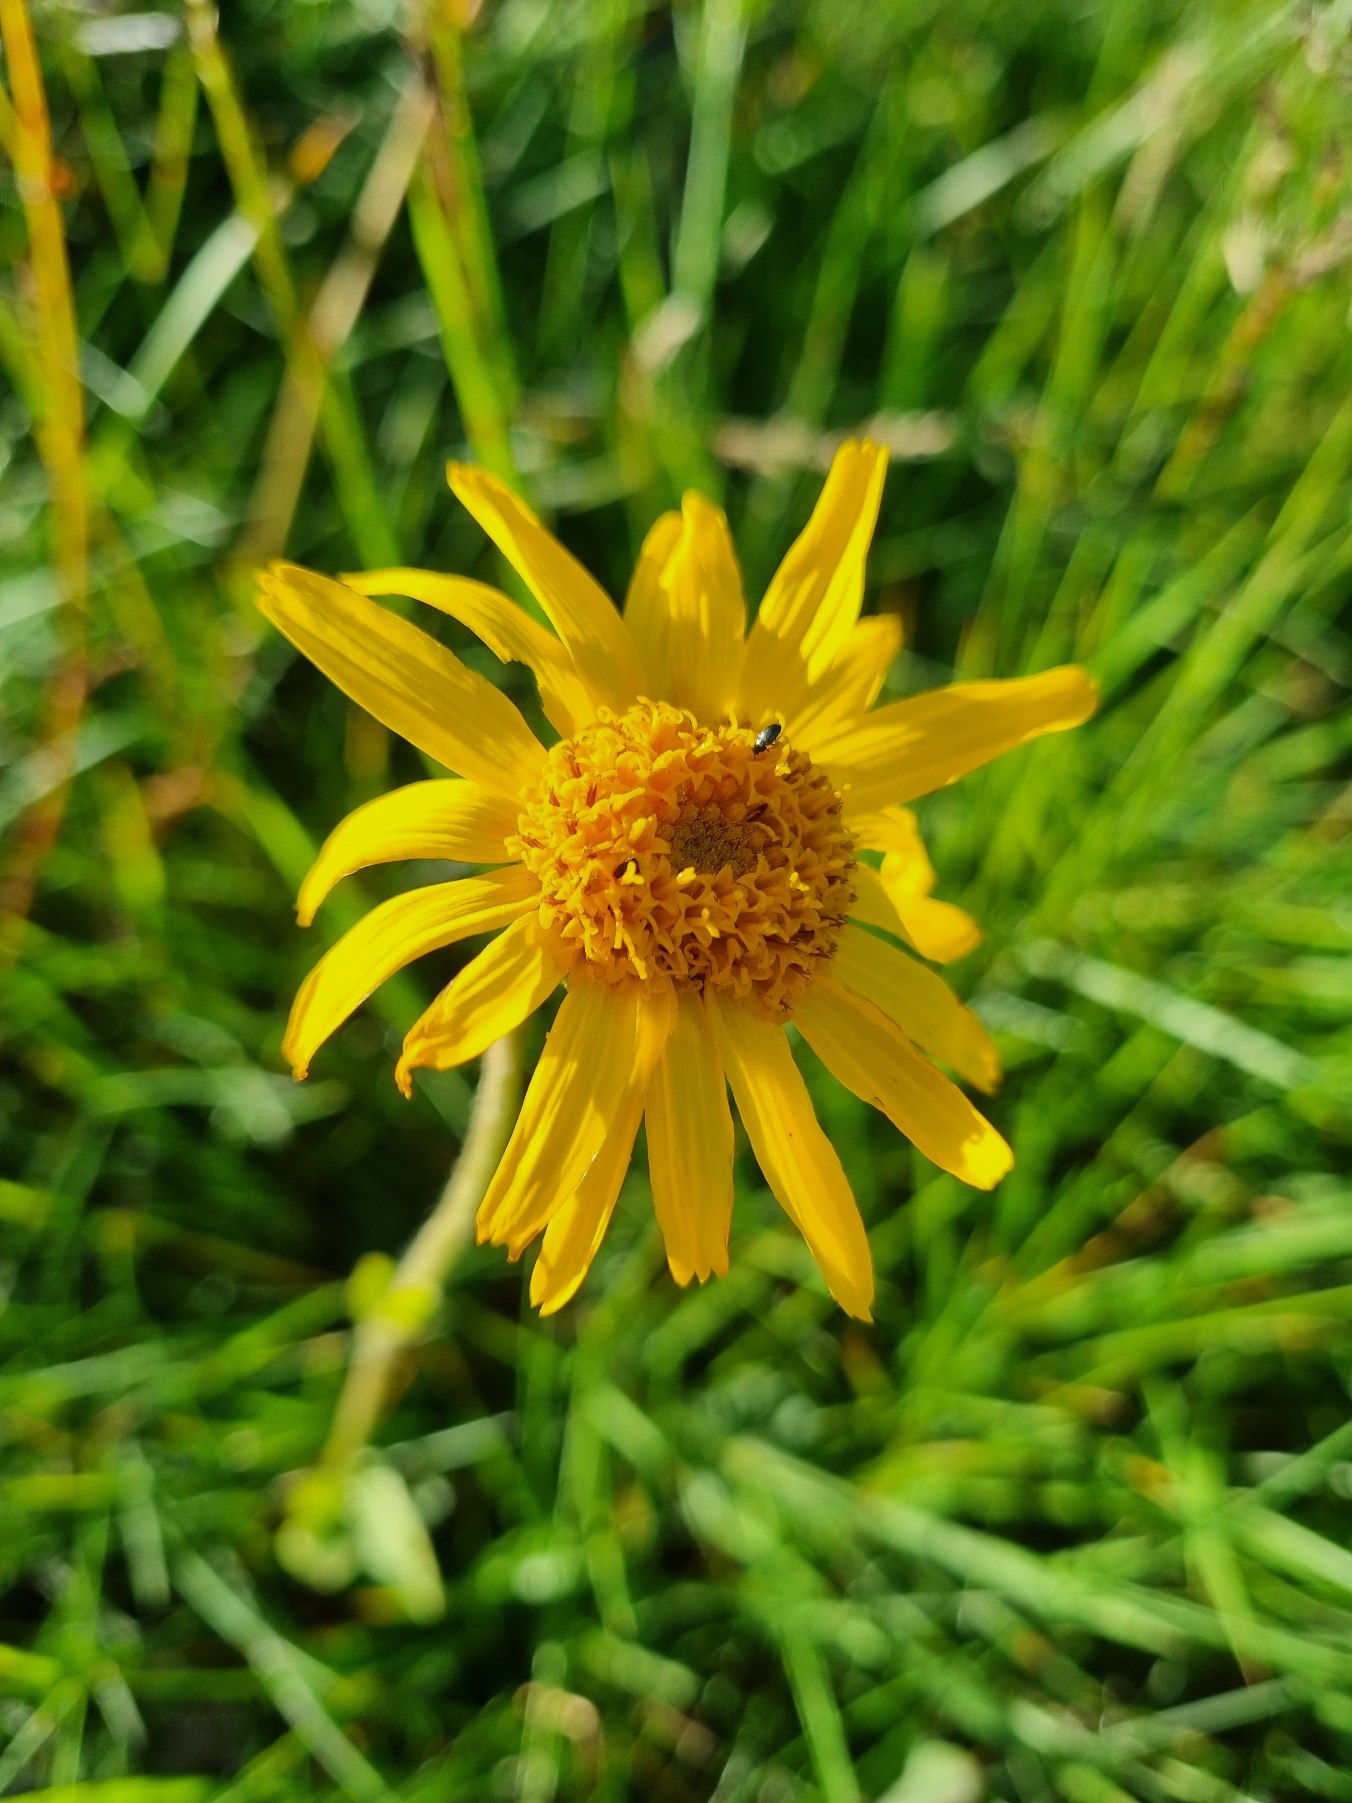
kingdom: Plantae
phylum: Tracheophyta
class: Magnoliopsida
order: Asterales
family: Asteraceae
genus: Arnica
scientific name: Arnica montana
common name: Guldblomme
